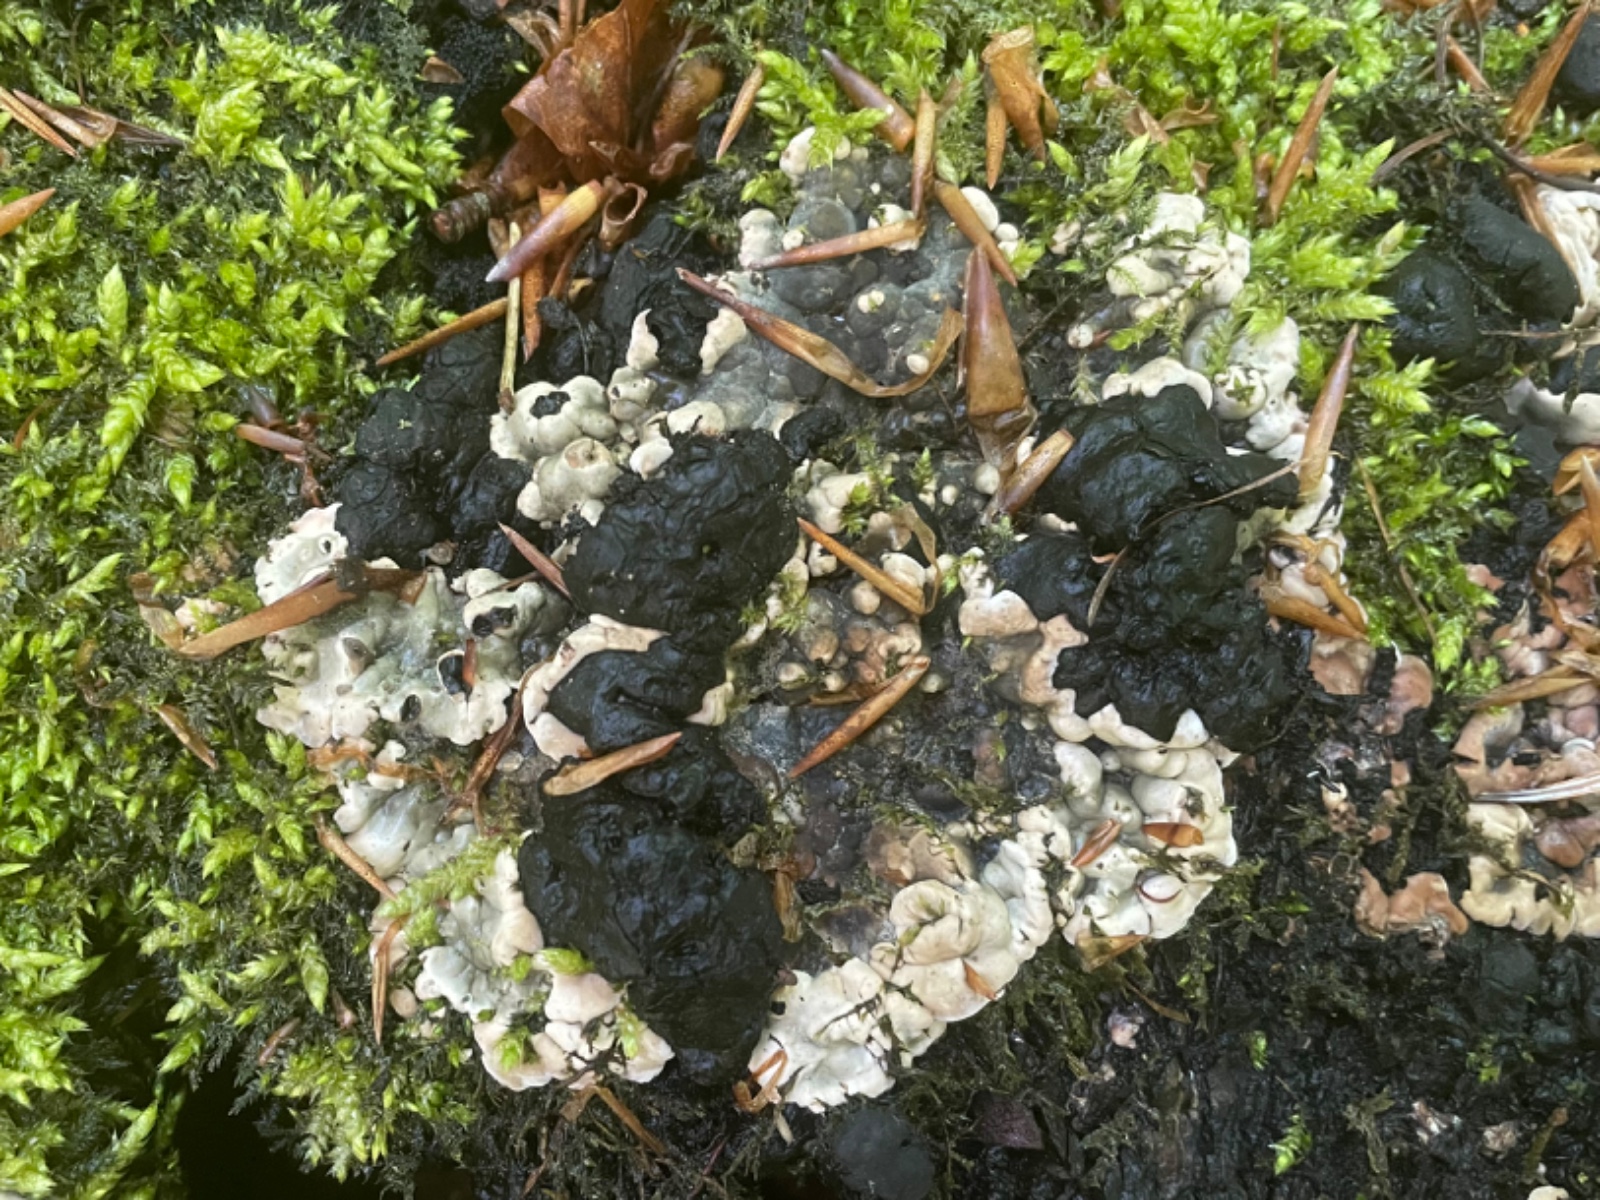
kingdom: Fungi
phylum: Ascomycota
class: Sordariomycetes
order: Xylariales
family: Xylariaceae
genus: Kretzschmaria
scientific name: Kretzschmaria deusta
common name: stor kulsvamp
